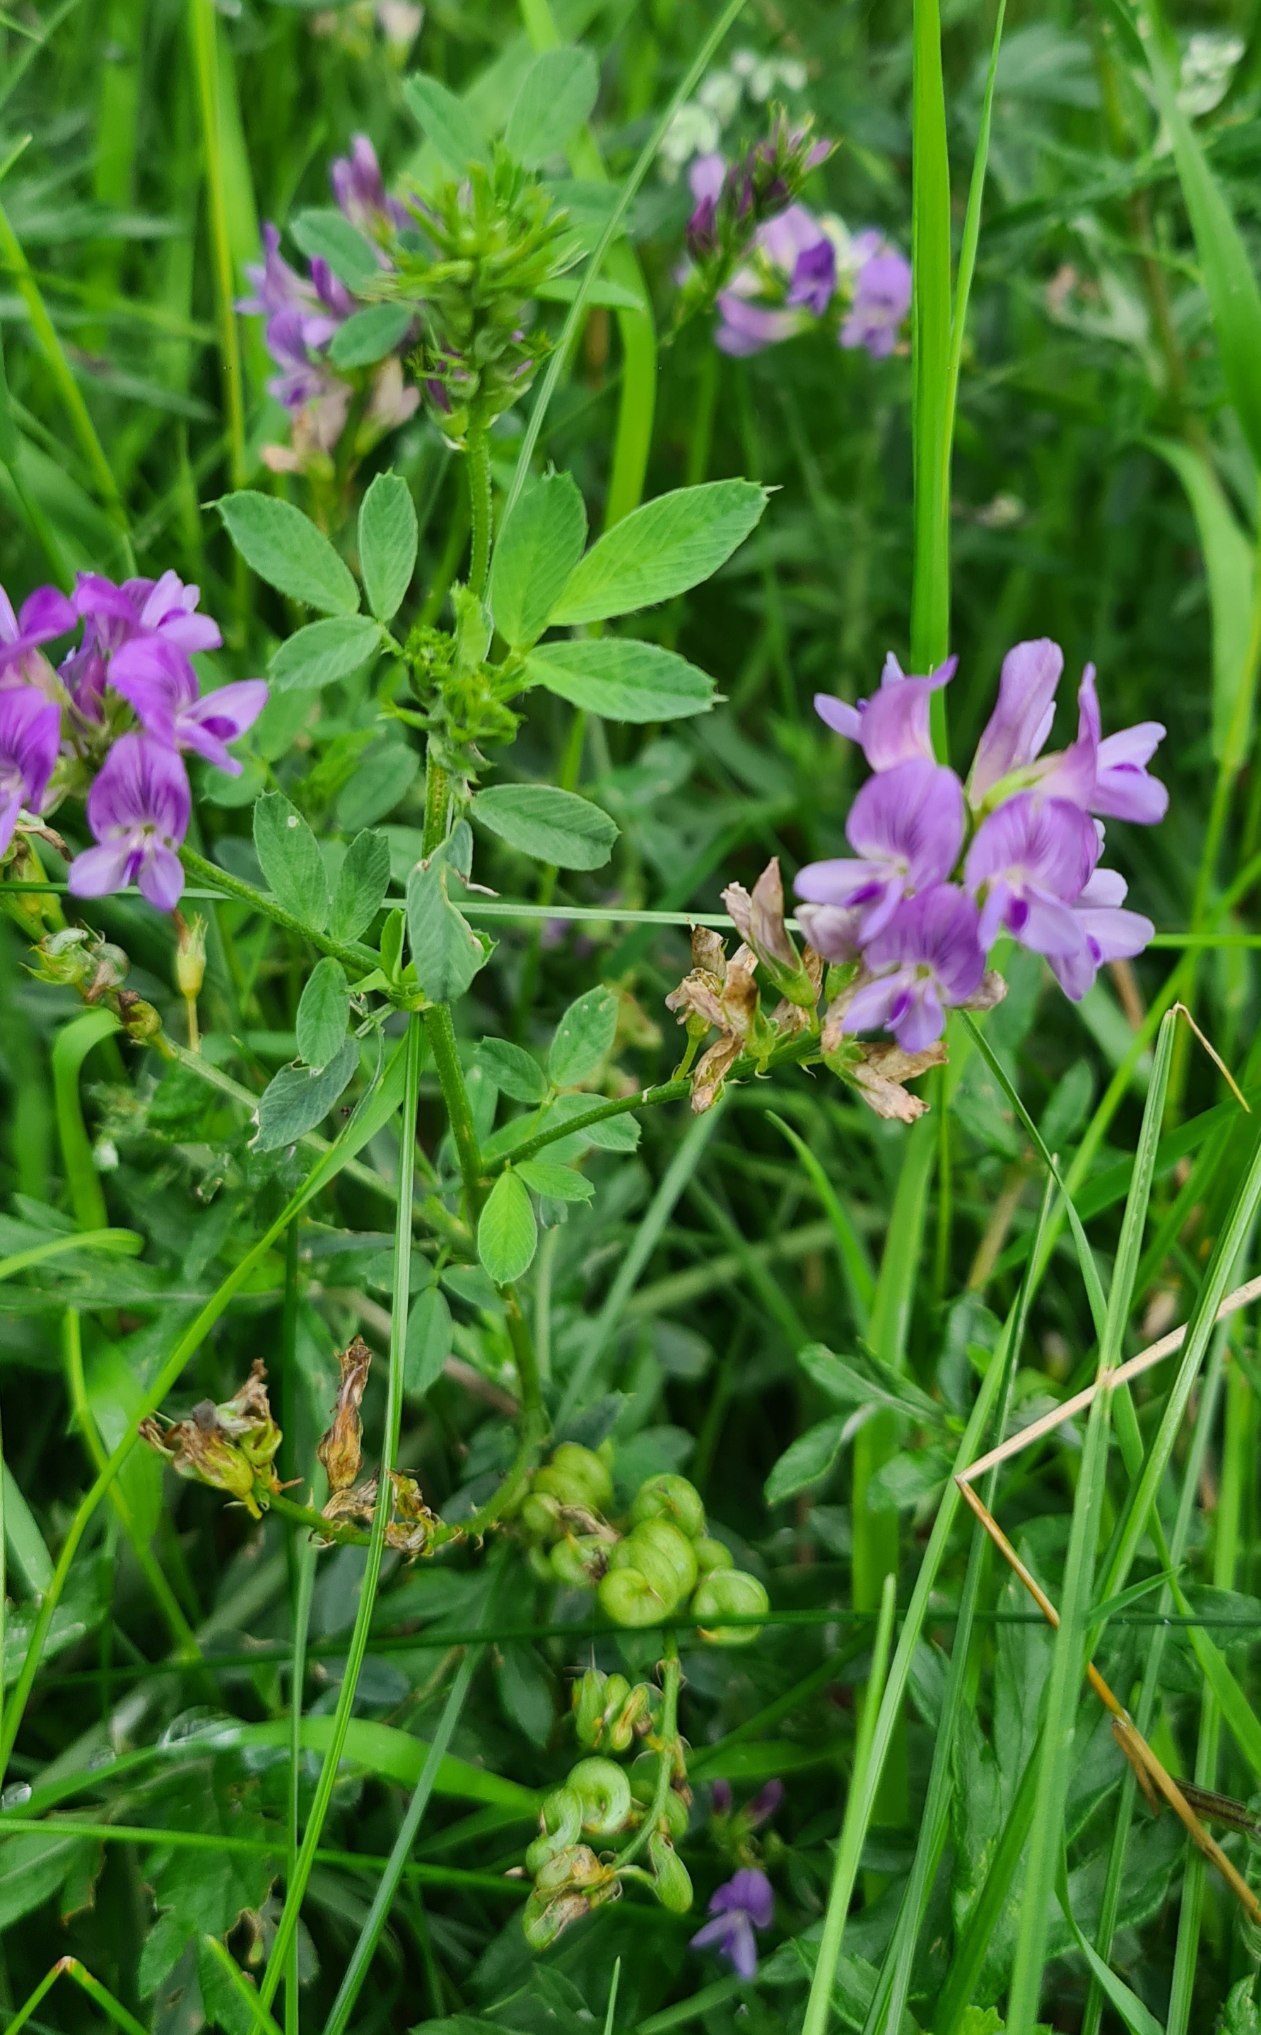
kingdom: Plantae
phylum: Tracheophyta
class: Magnoliopsida
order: Fabales
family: Fabaceae
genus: Medicago
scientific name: Medicago sativa
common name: Foderlucerne
